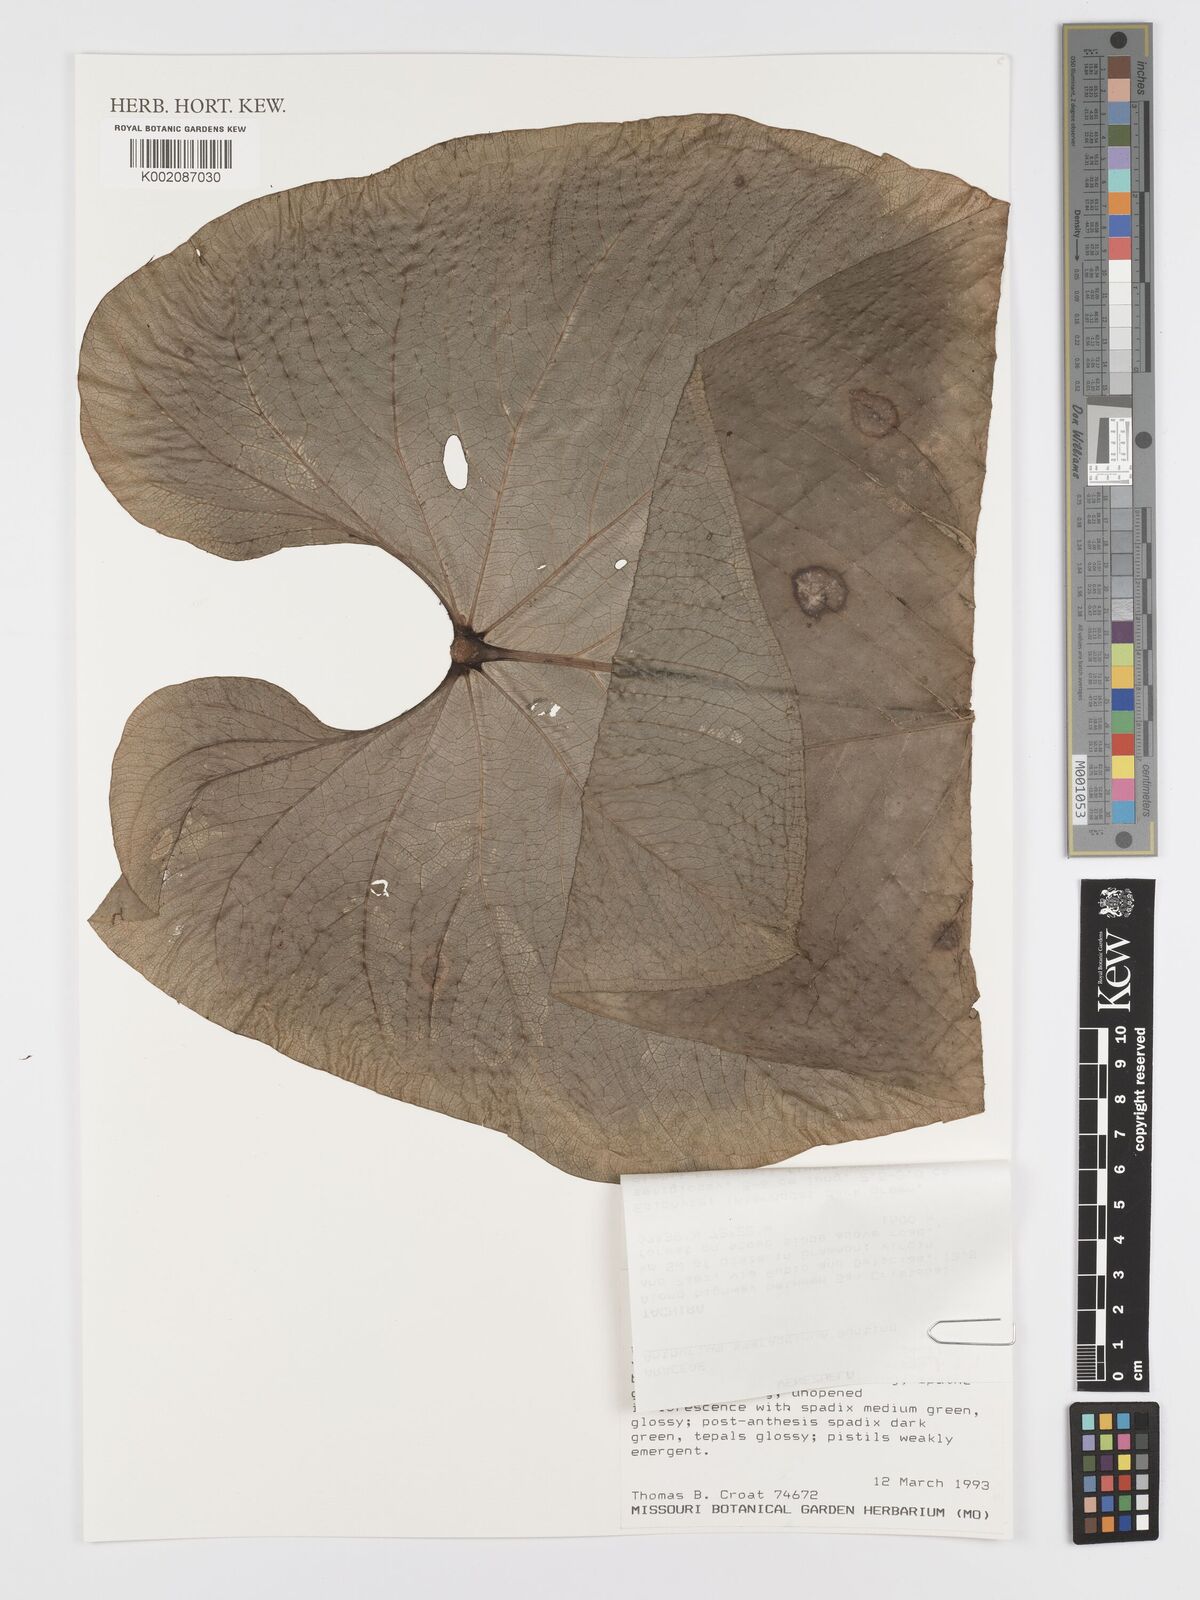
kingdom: Plantae
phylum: Tracheophyta
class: Liliopsida
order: Alismatales
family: Araceae
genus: Anthurium
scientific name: Anthurium smaragdinum
